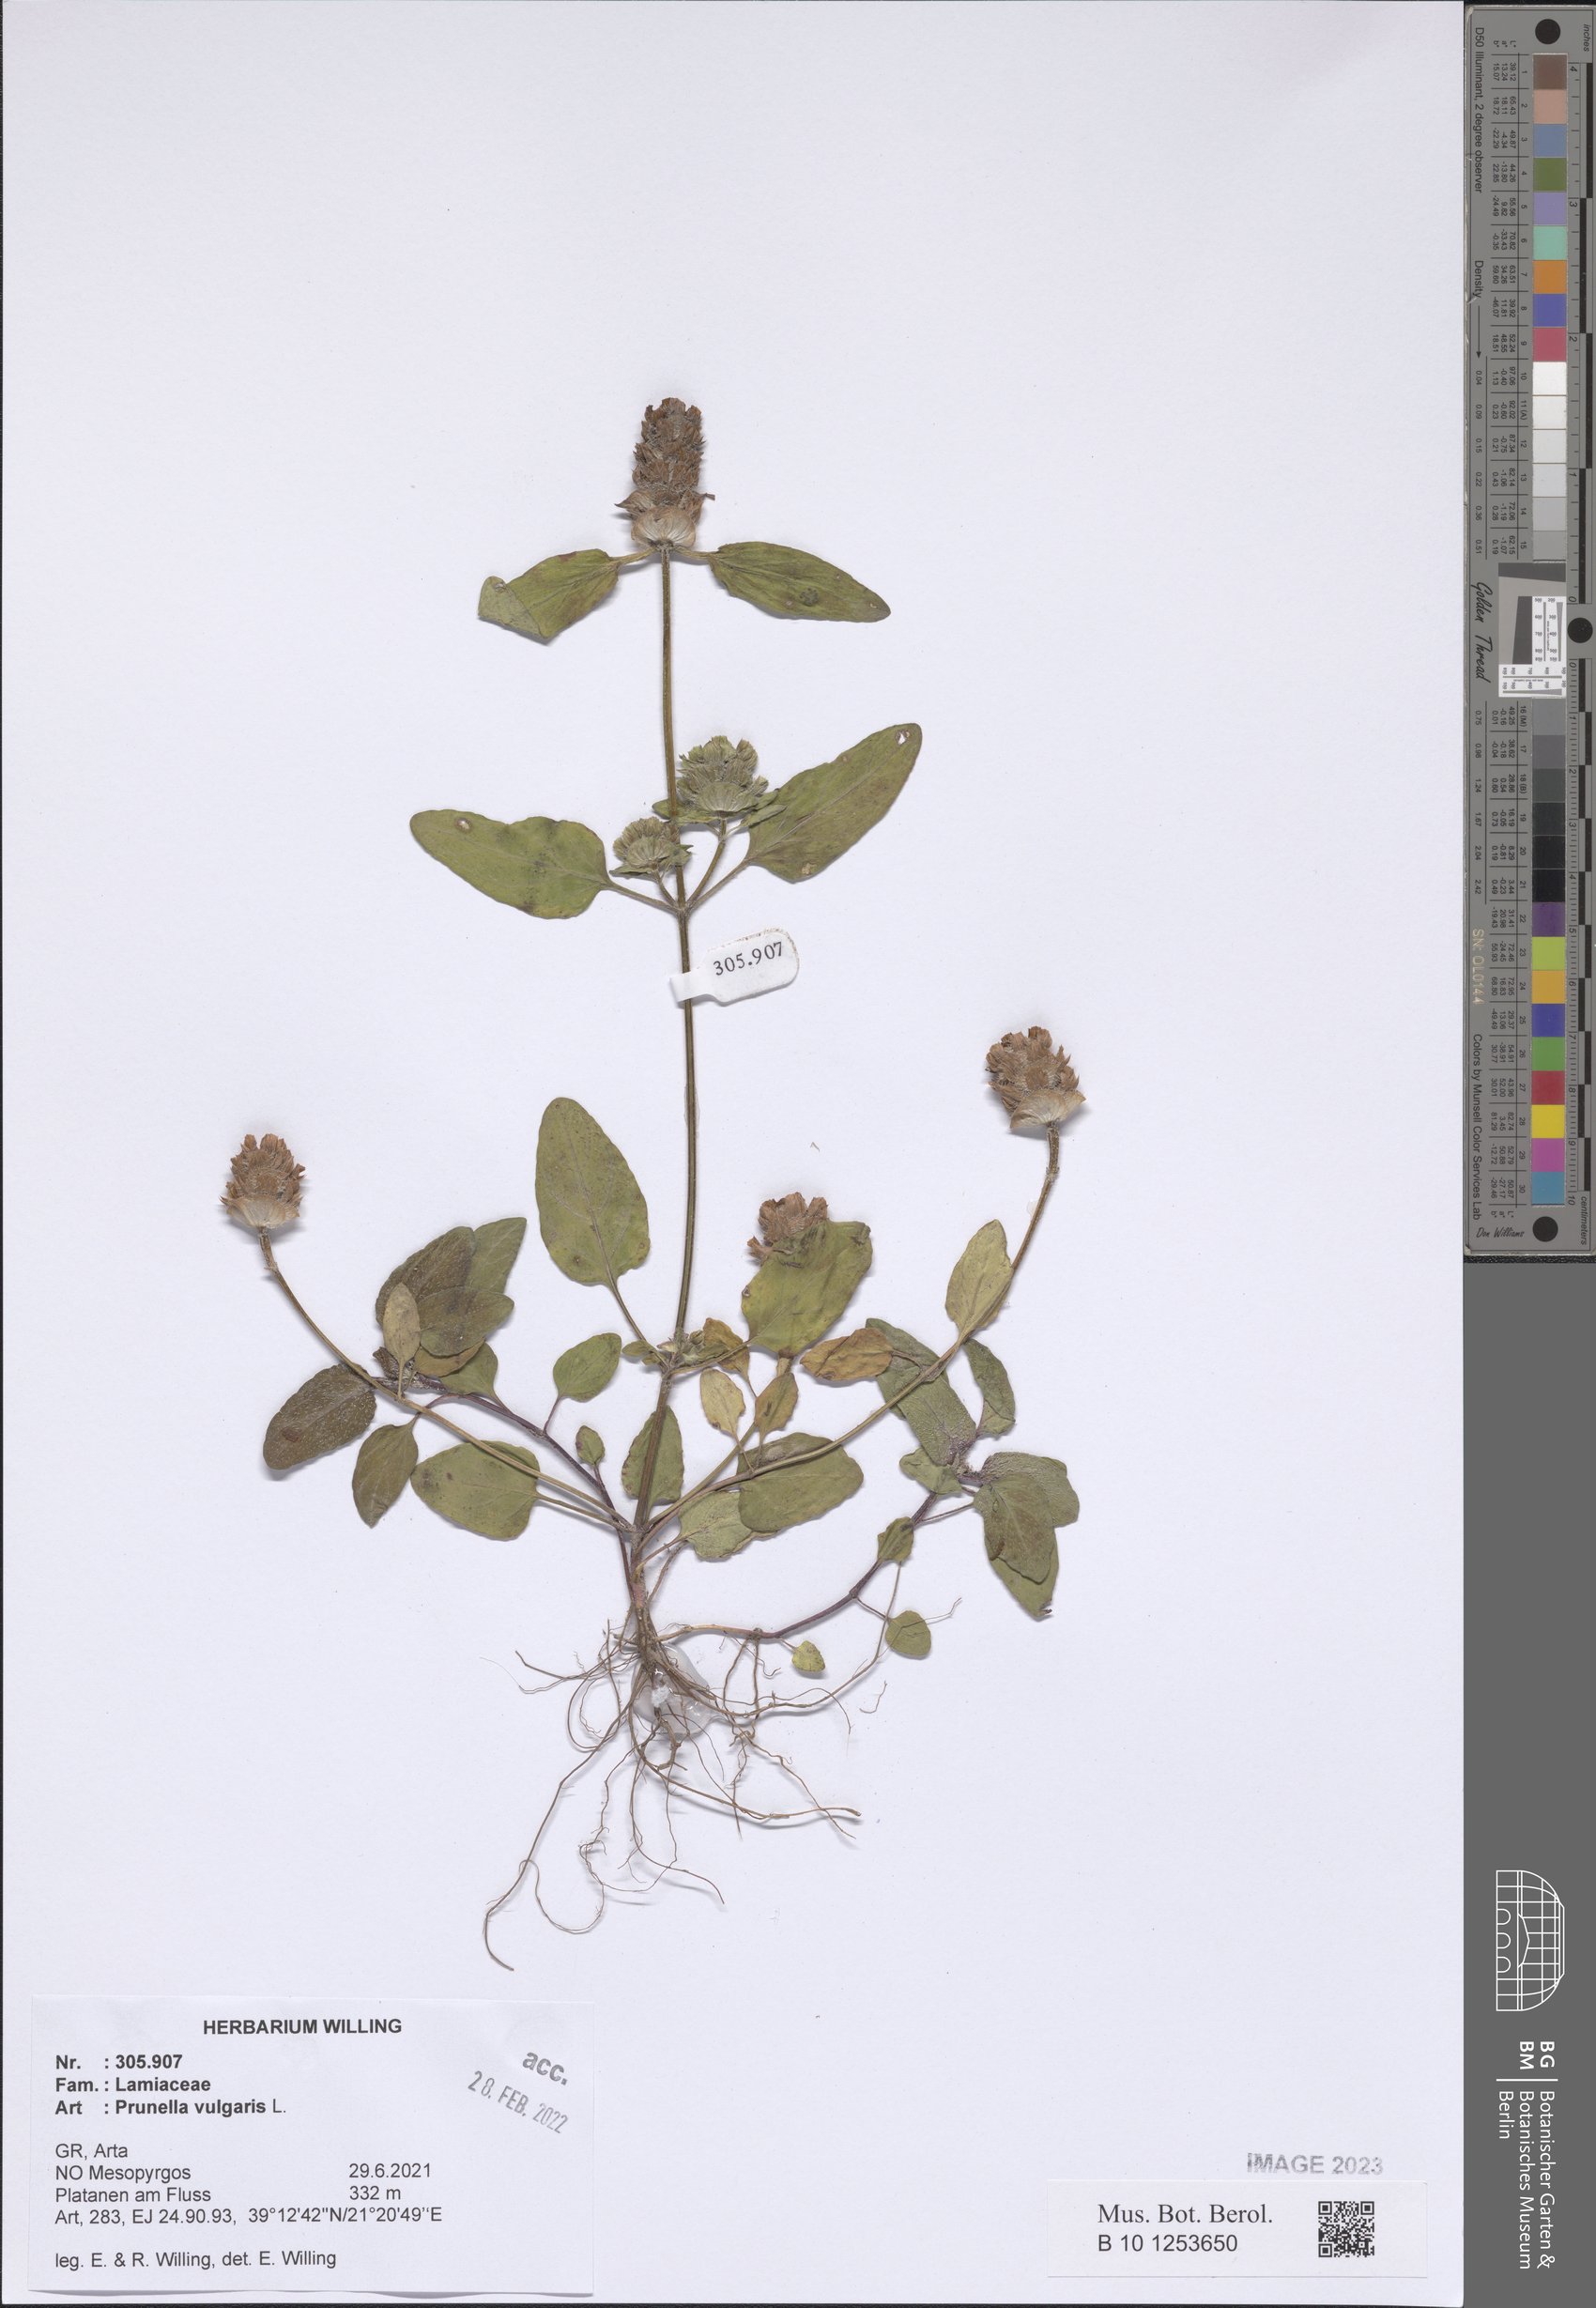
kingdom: Plantae
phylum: Tracheophyta
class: Magnoliopsida
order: Lamiales
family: Lamiaceae
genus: Prunella
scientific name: Prunella vulgaris
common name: Heal-all
